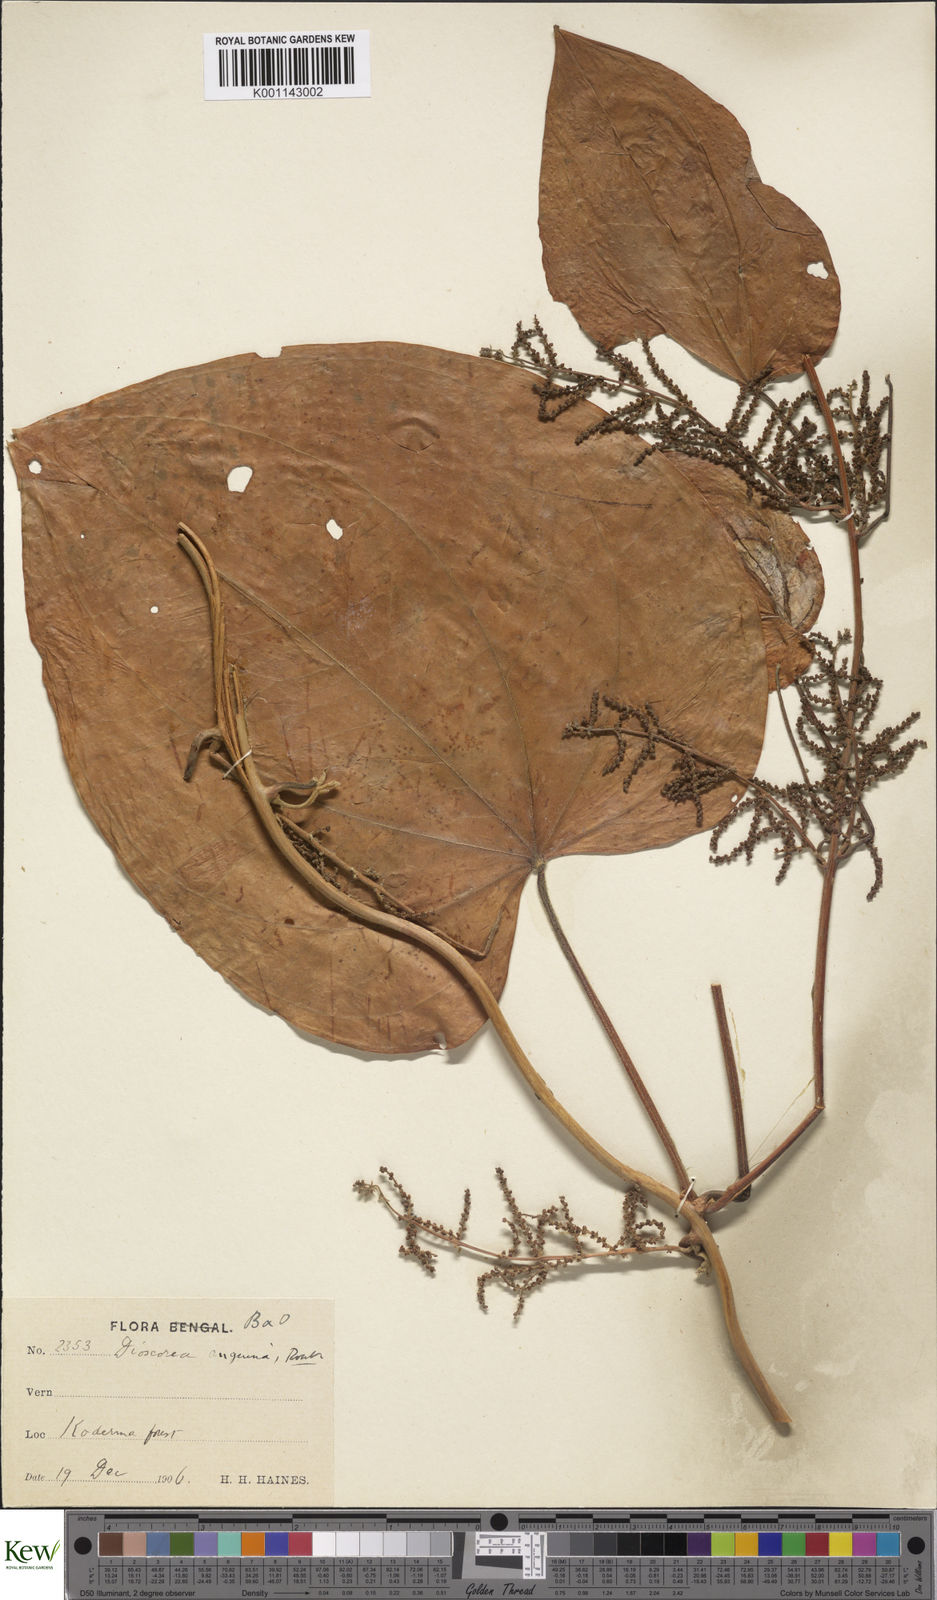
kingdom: Plantae
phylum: Tracheophyta
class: Liliopsida
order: Dioscoreales
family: Dioscoreaceae
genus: Dioscorea
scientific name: Dioscorea pubera
